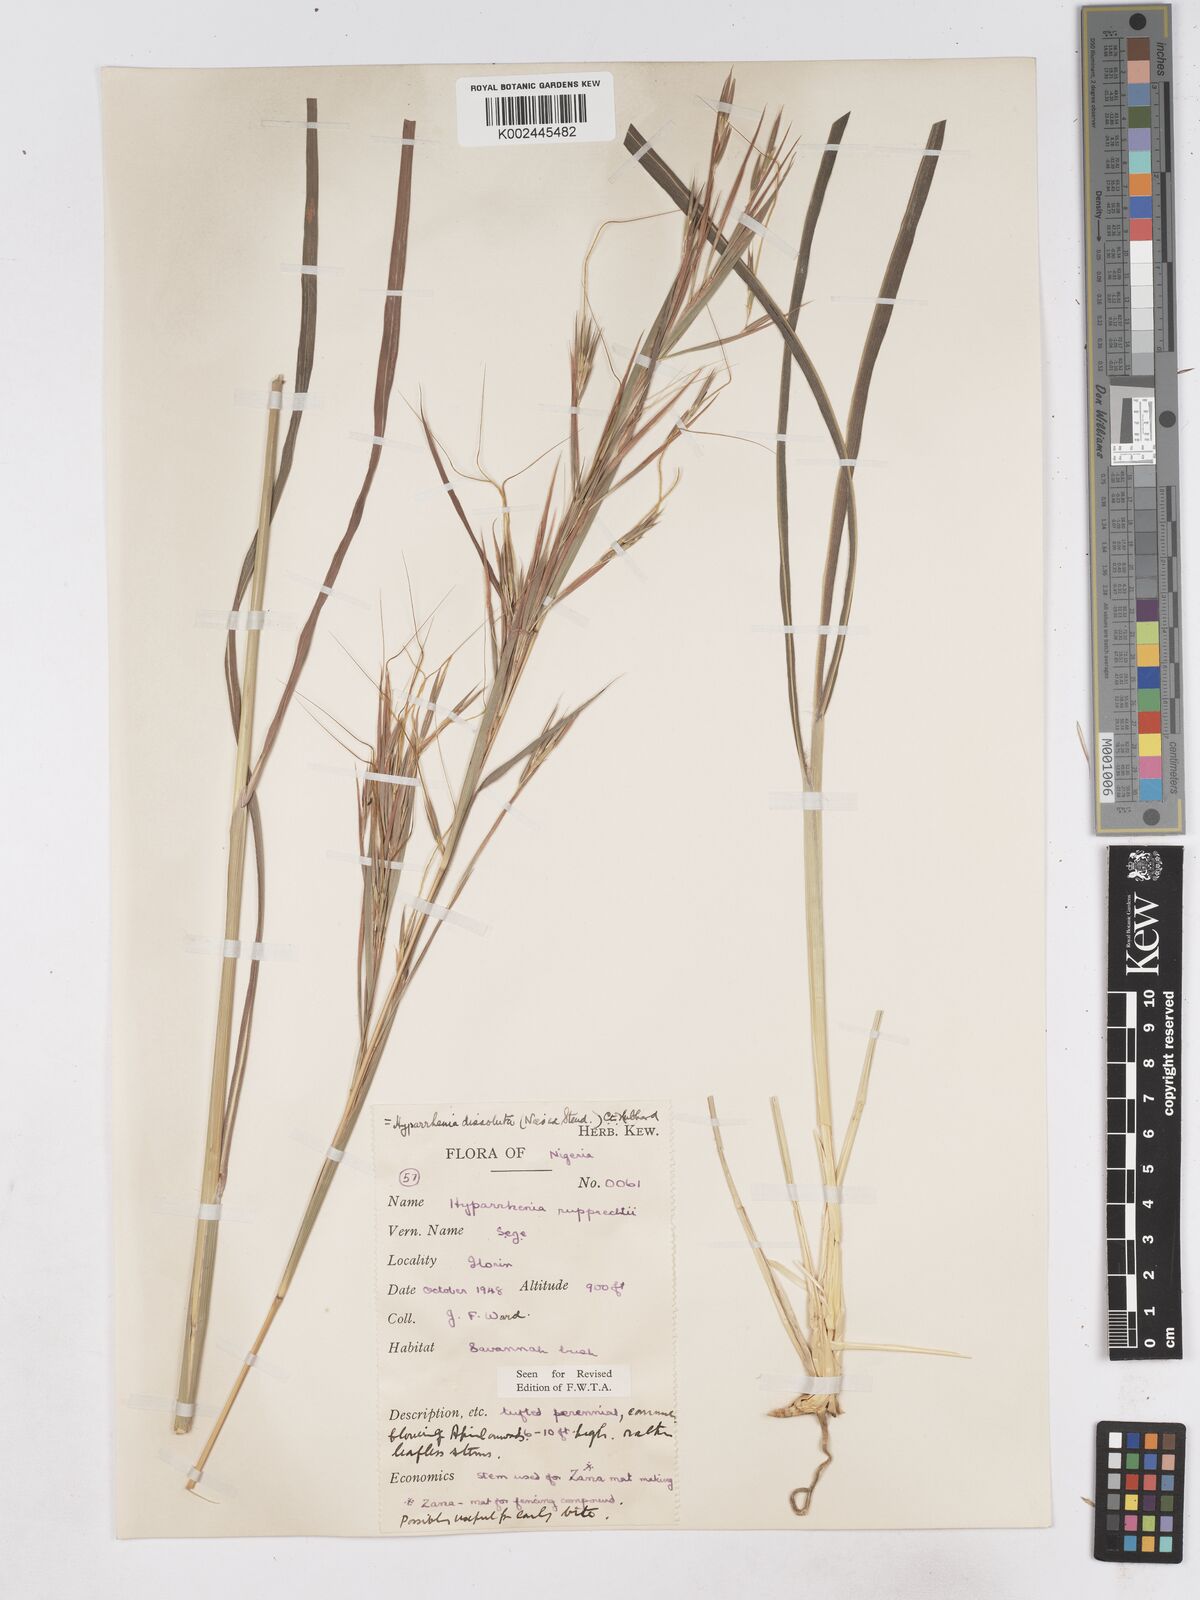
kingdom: Plantae
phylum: Tracheophyta
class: Liliopsida
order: Poales
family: Poaceae
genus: Hyperthelia
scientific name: Hyperthelia dissoluta
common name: Yellow thatching grass
